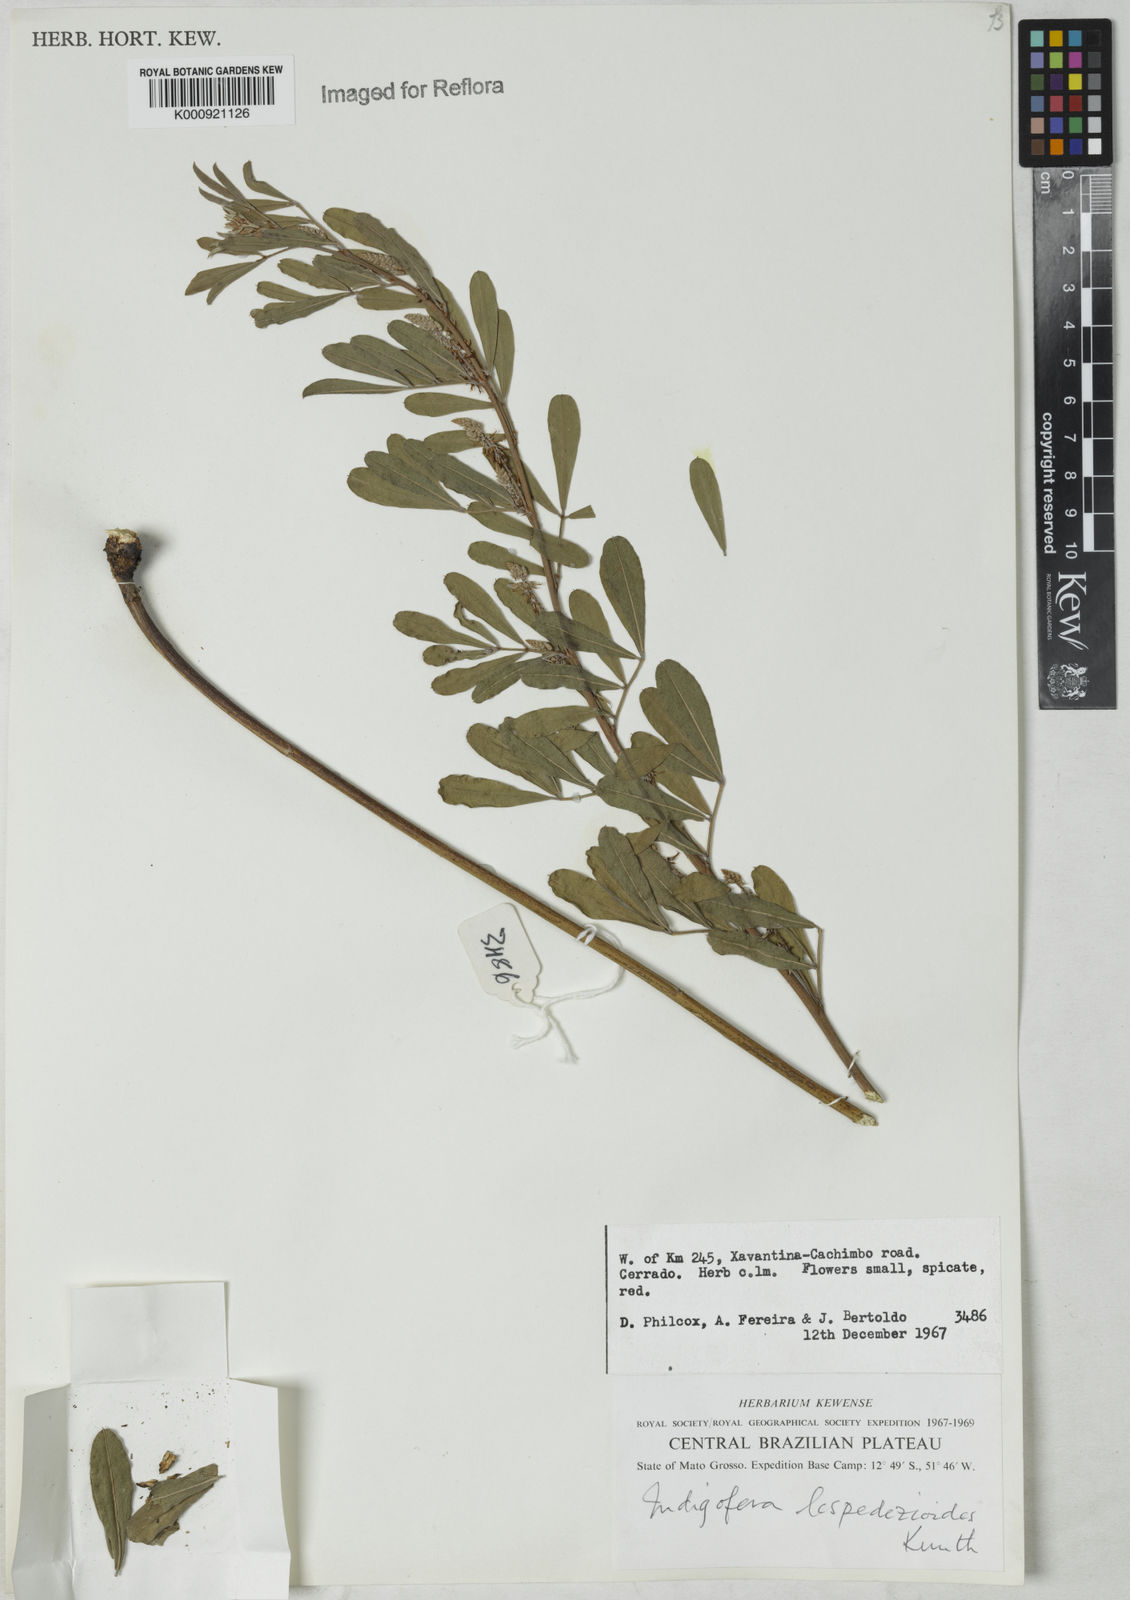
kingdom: Plantae
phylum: Tracheophyta
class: Magnoliopsida
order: Fabales
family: Fabaceae
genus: Indigofera
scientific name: Indigofera lespedezioides
